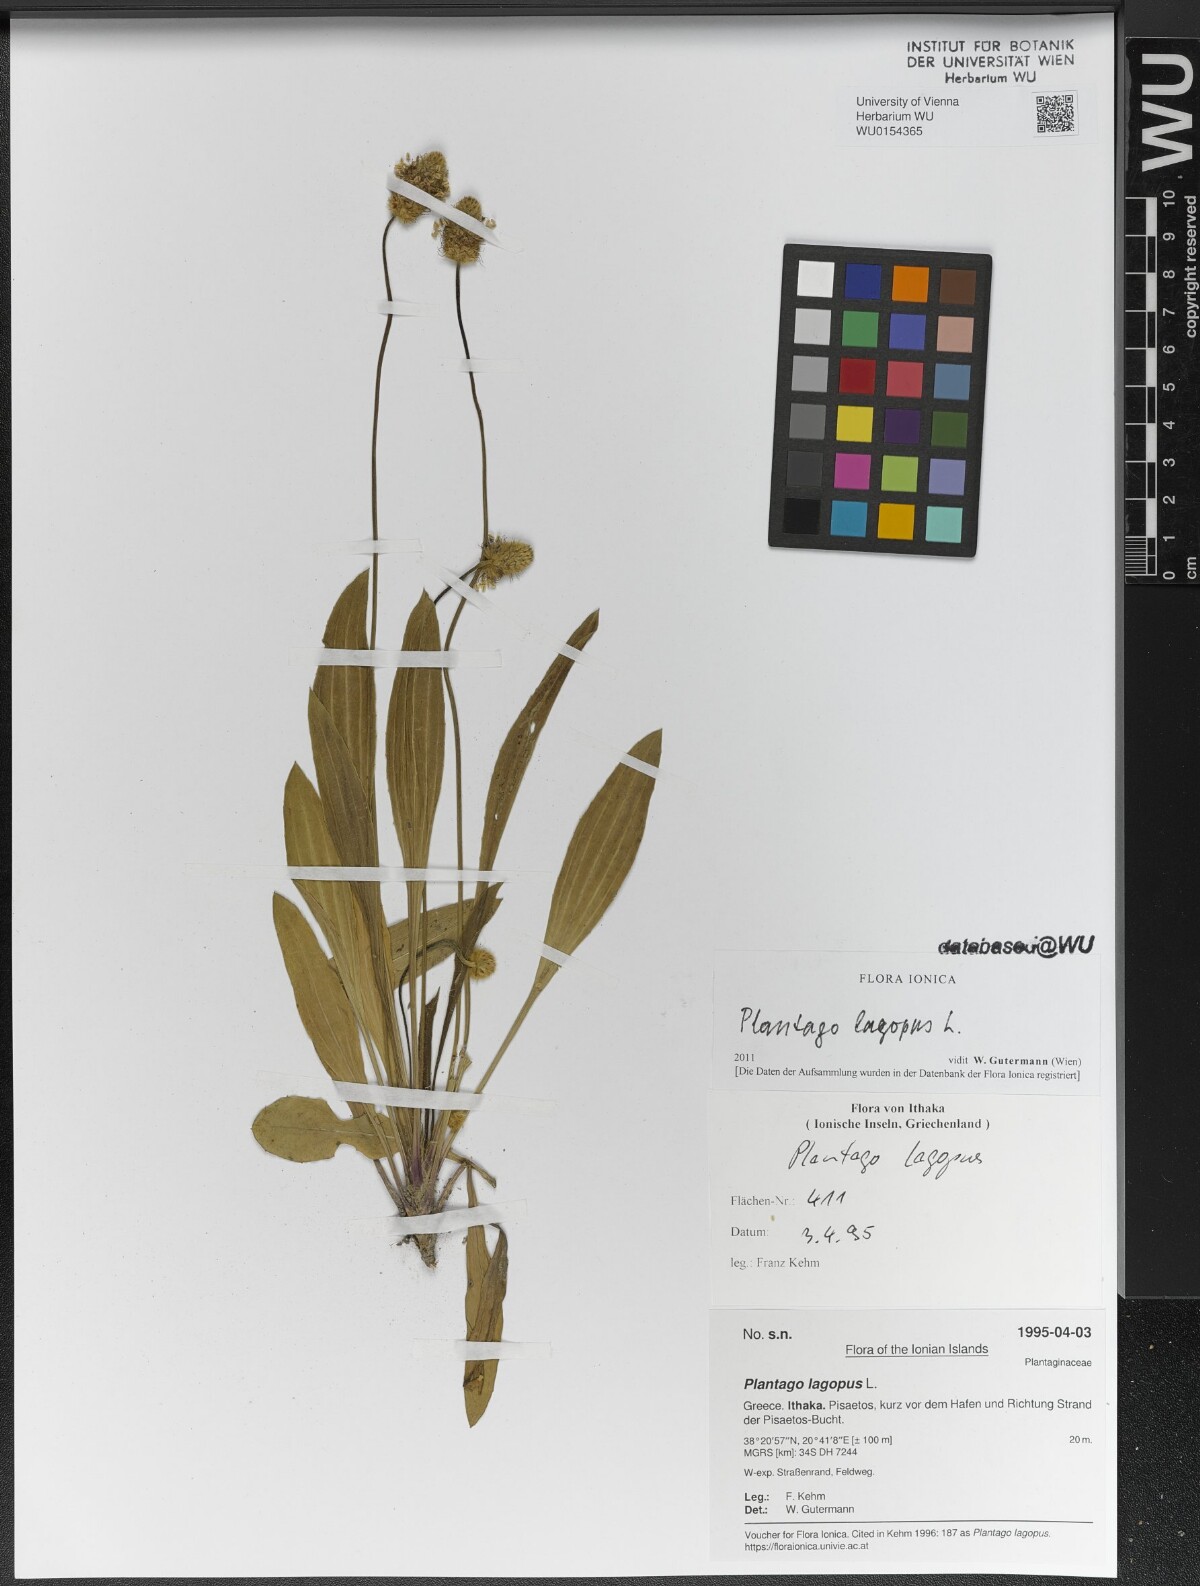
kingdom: Plantae
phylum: Tracheophyta
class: Magnoliopsida
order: Lamiales
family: Plantaginaceae
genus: Plantago
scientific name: Plantago lagopus
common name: Hare-foot plantain
